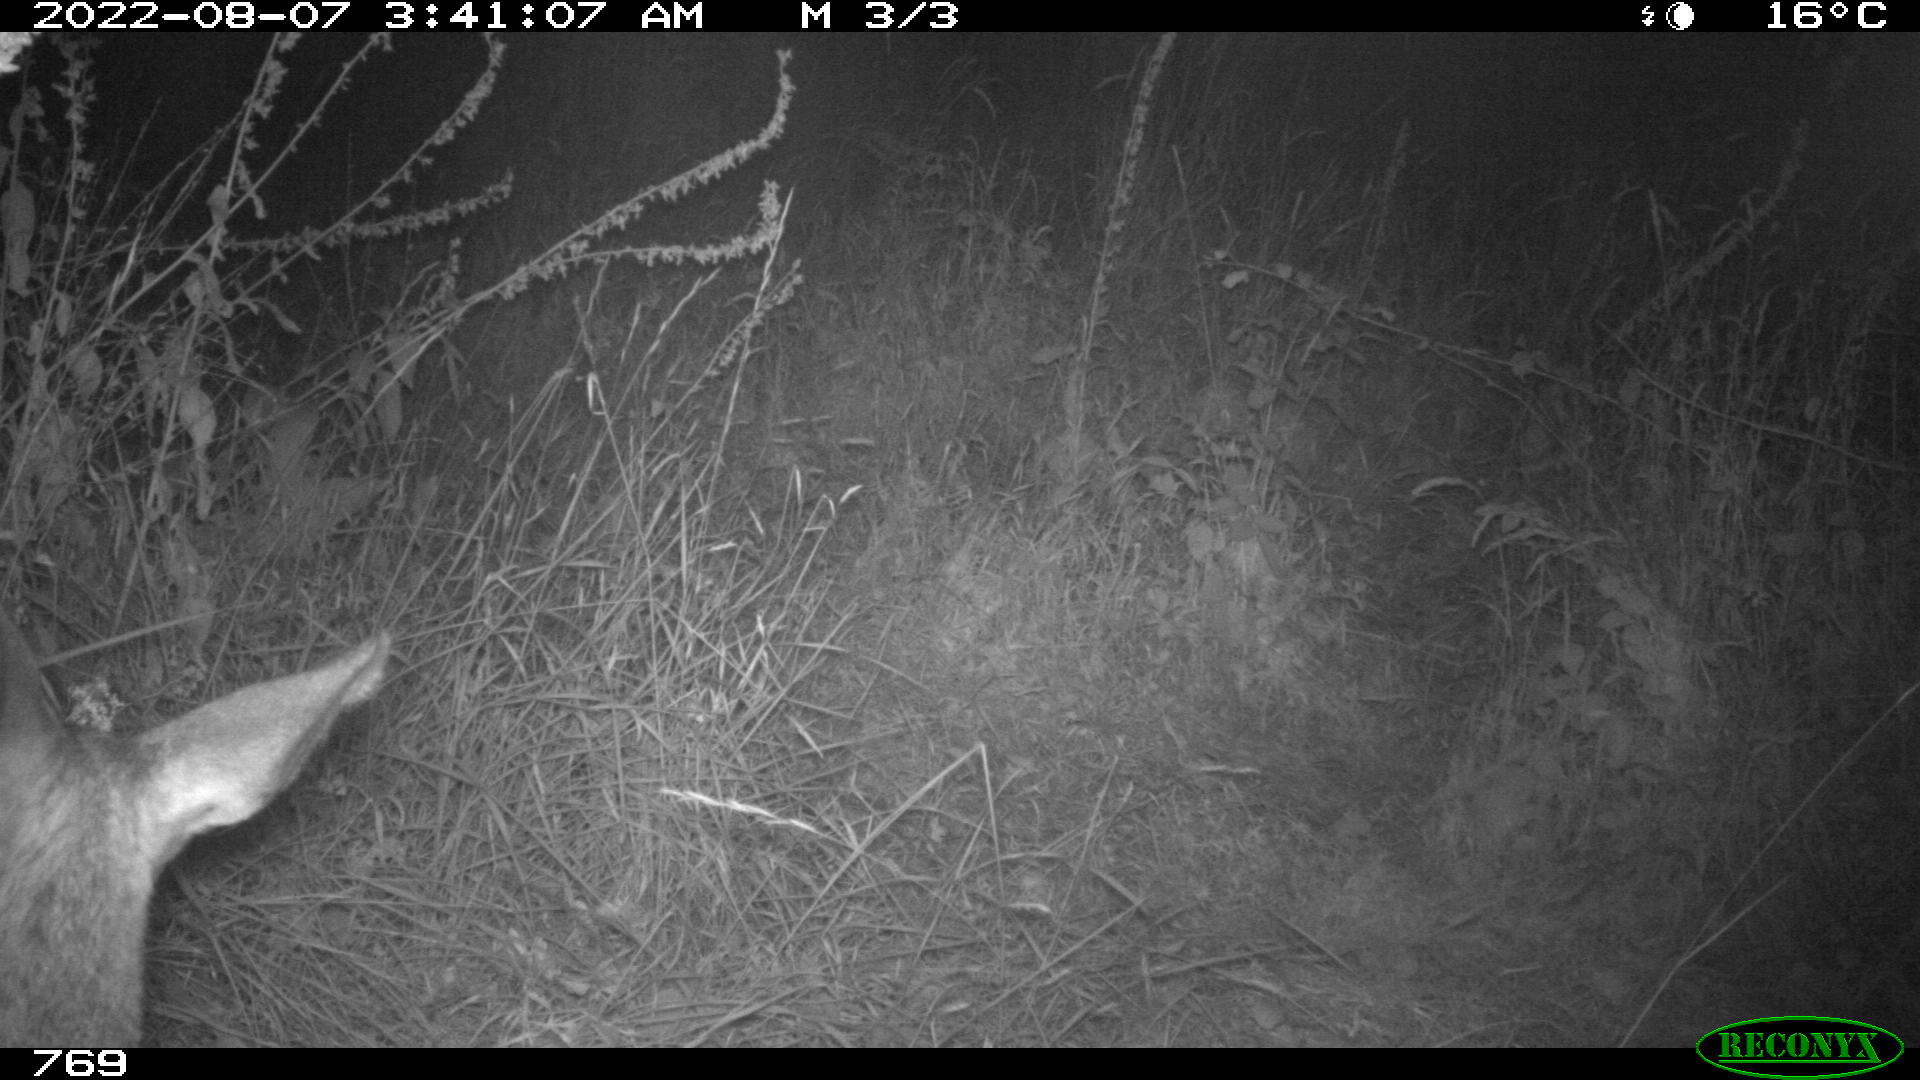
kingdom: Animalia
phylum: Chordata
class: Mammalia
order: Artiodactyla
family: Cervidae
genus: Capreolus
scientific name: Capreolus capreolus
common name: Western roe deer
